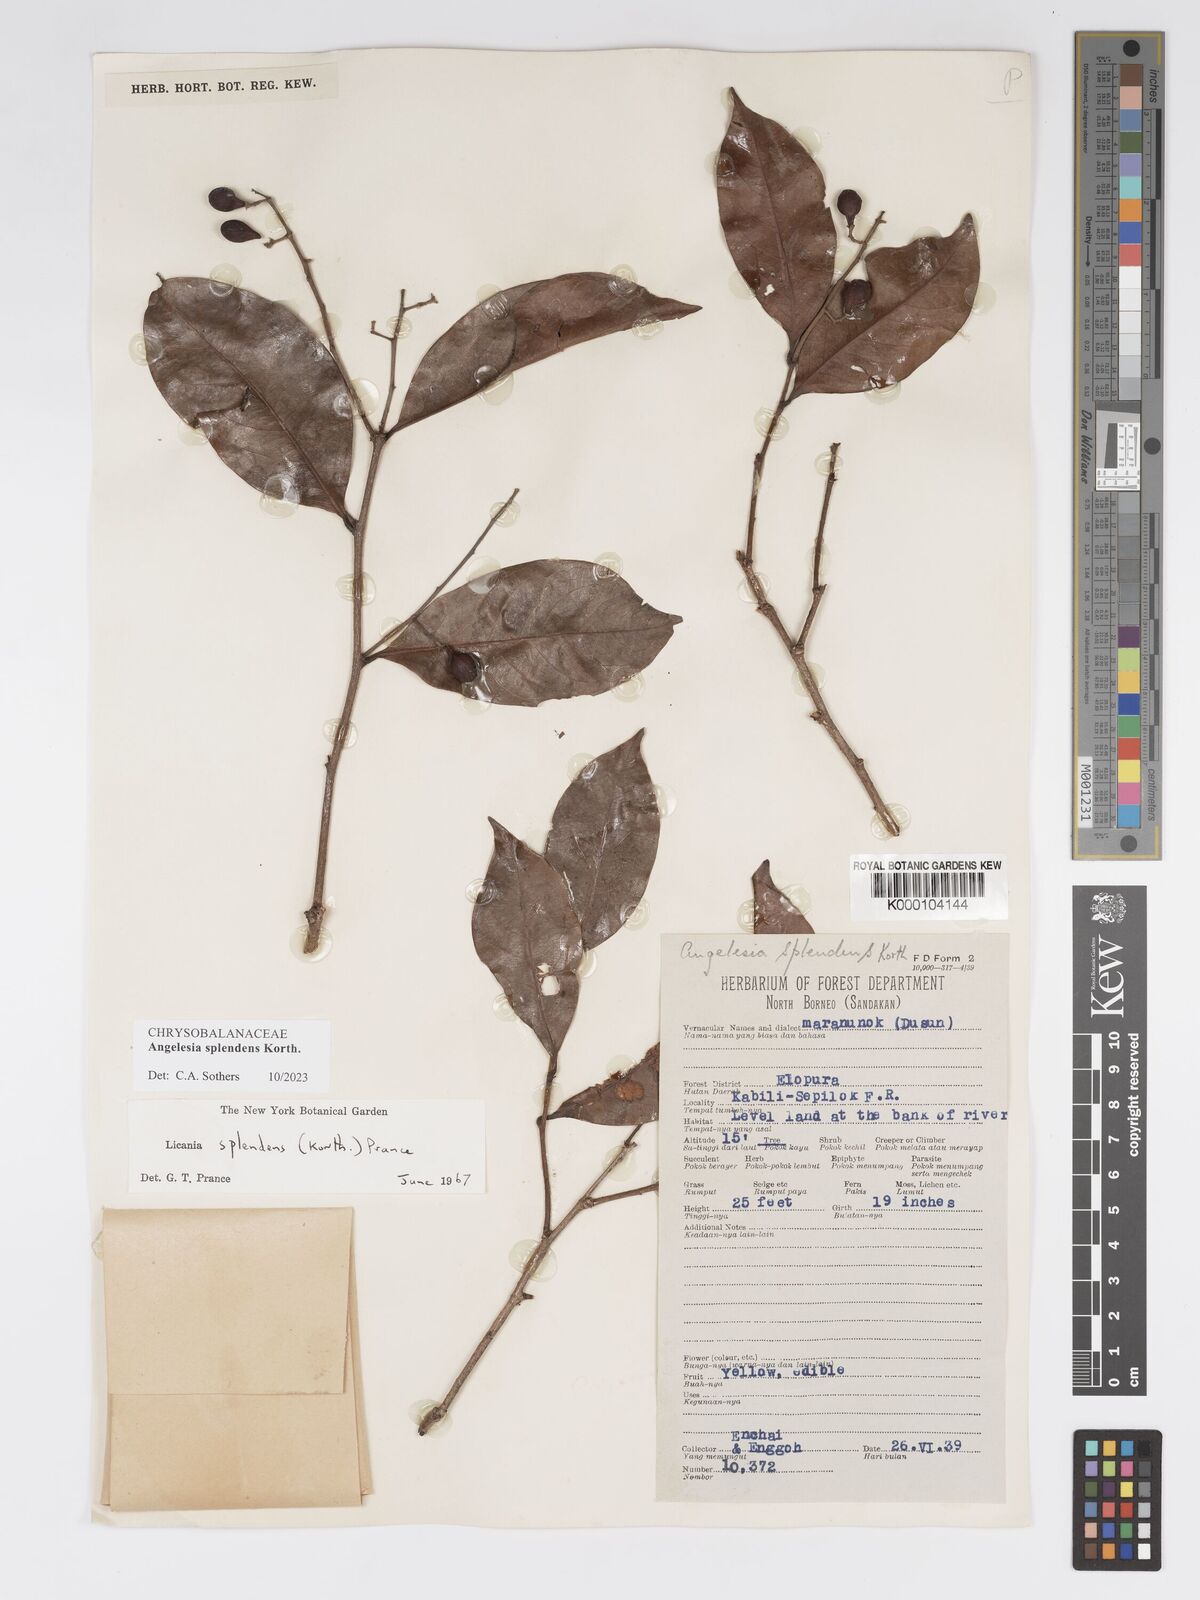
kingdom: Plantae
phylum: Tracheophyta
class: Magnoliopsida
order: Malpighiales
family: Chrysobalanaceae
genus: Angelesia
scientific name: Angelesia splendens
